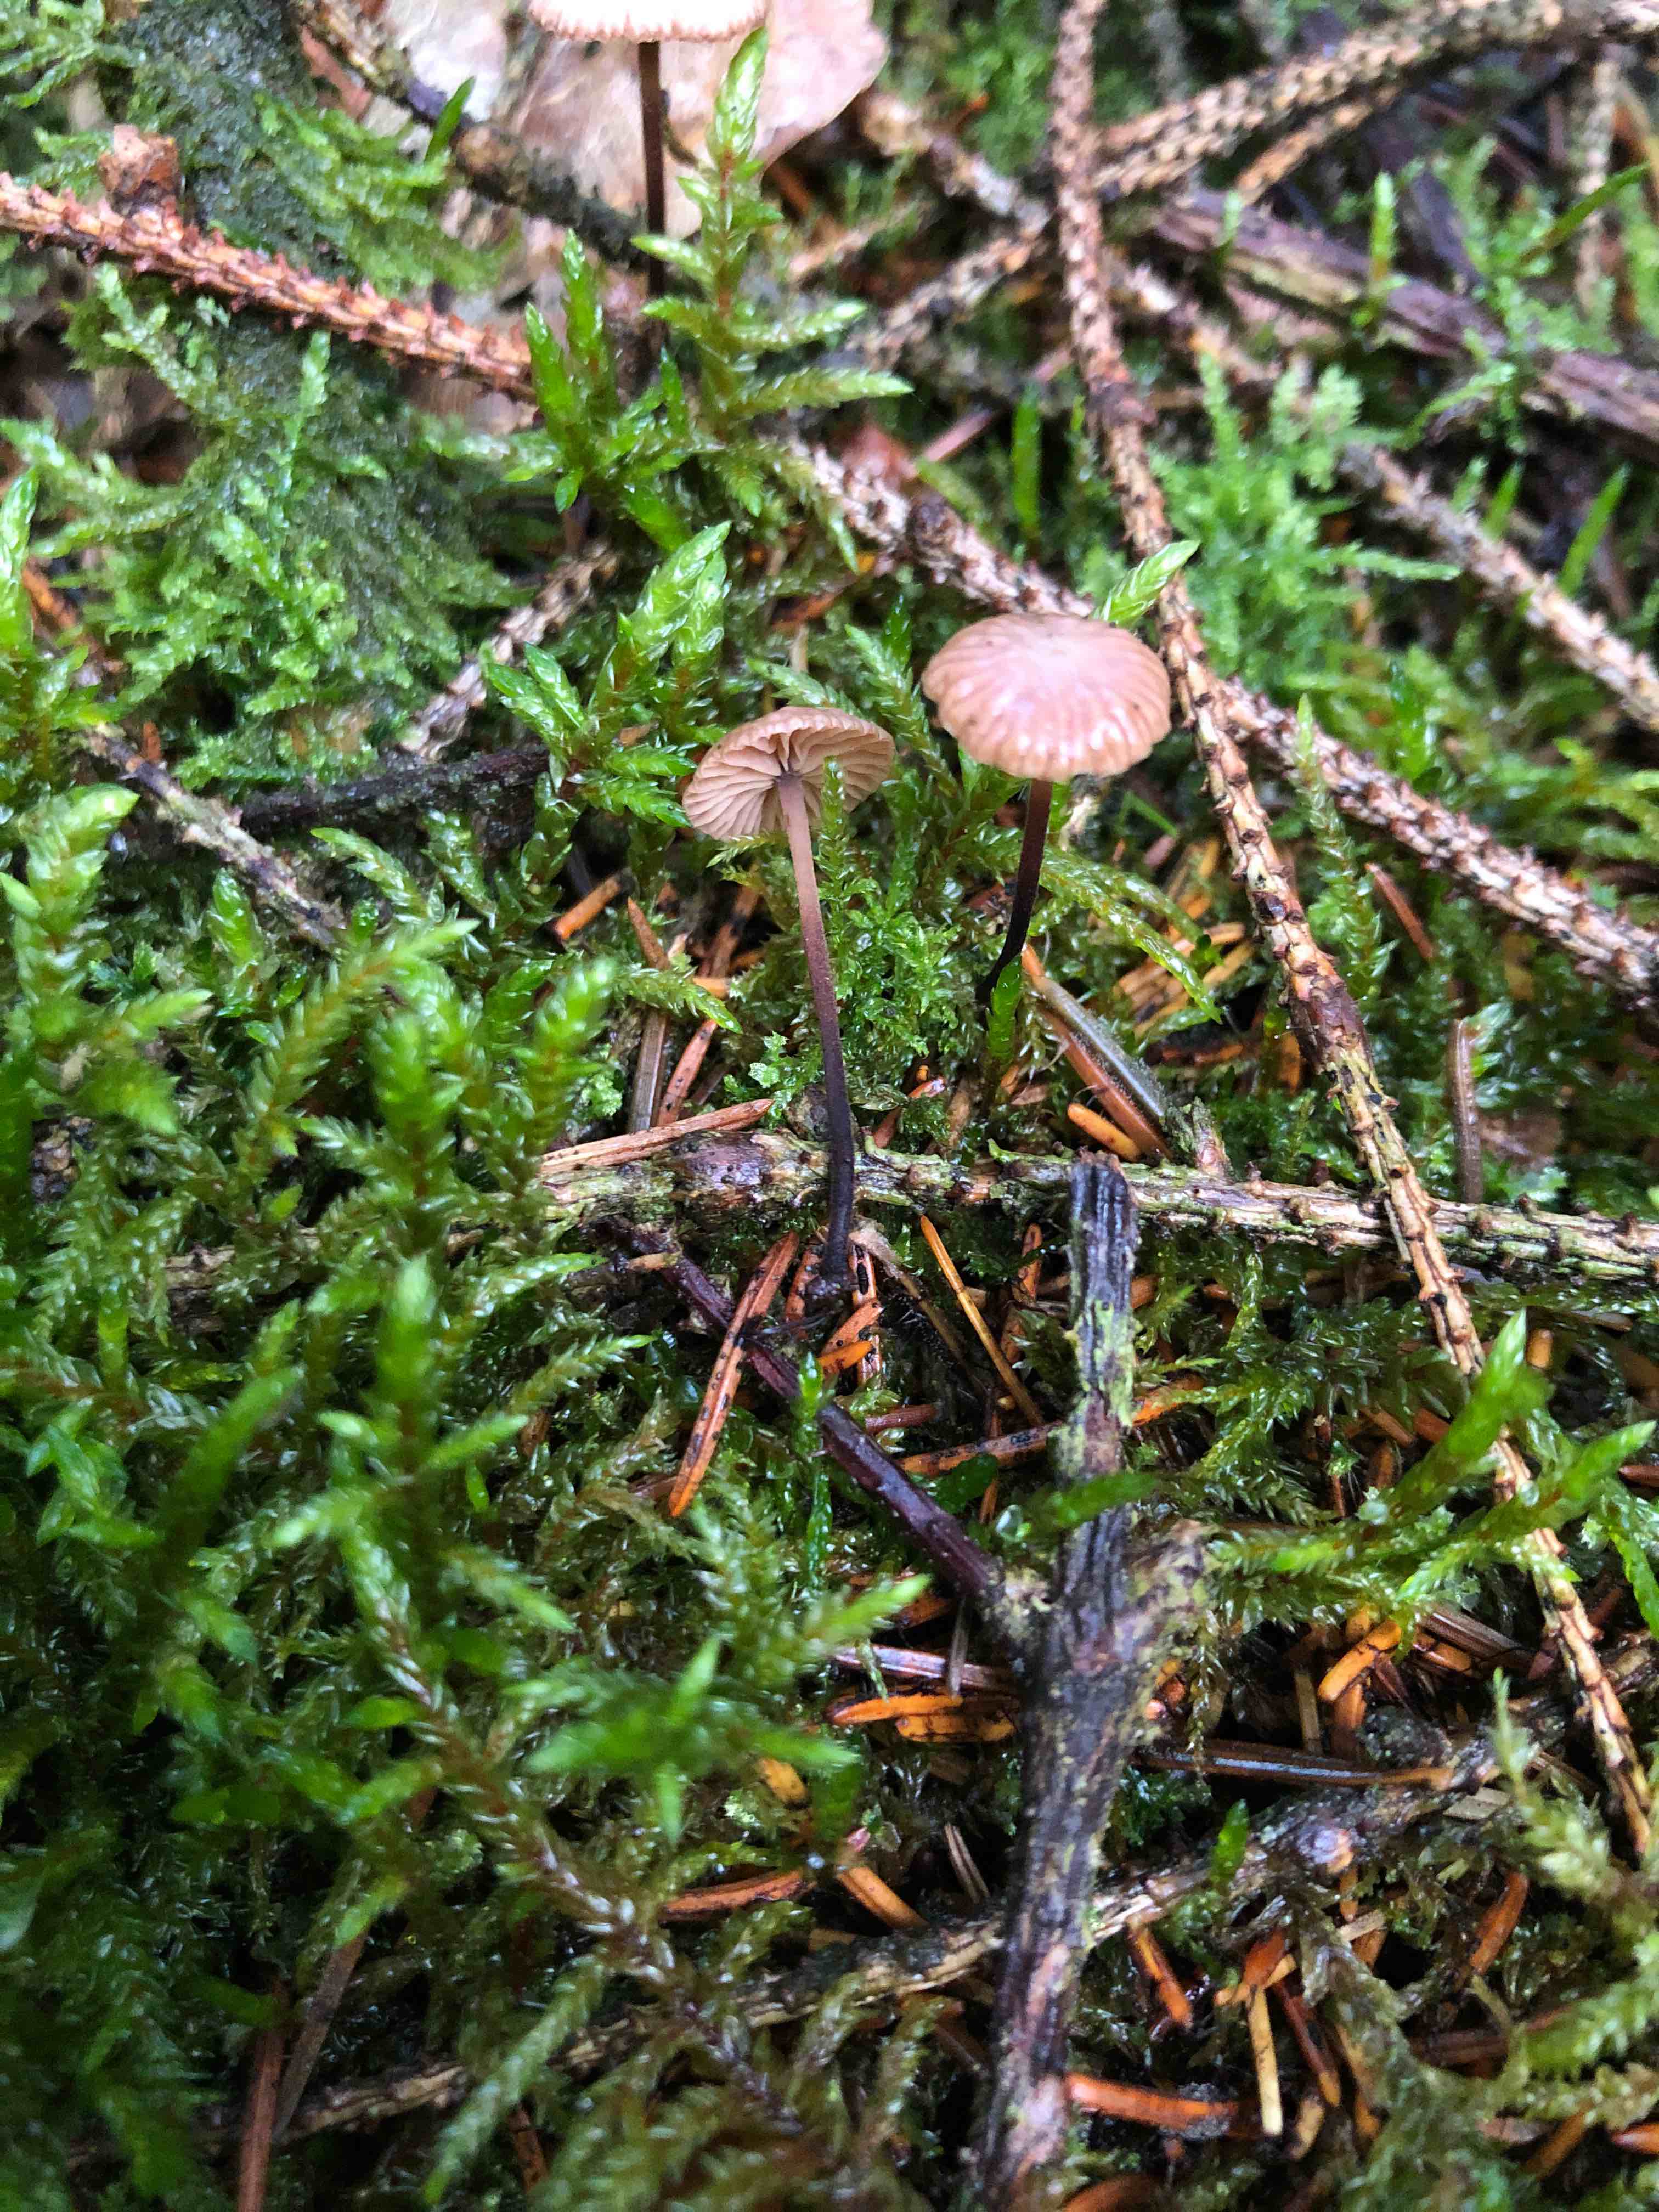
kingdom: Fungi
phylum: Basidiomycota
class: Agaricomycetes
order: Agaricales
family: Omphalotaceae
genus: Paragymnopus
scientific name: Paragymnopus perforans
